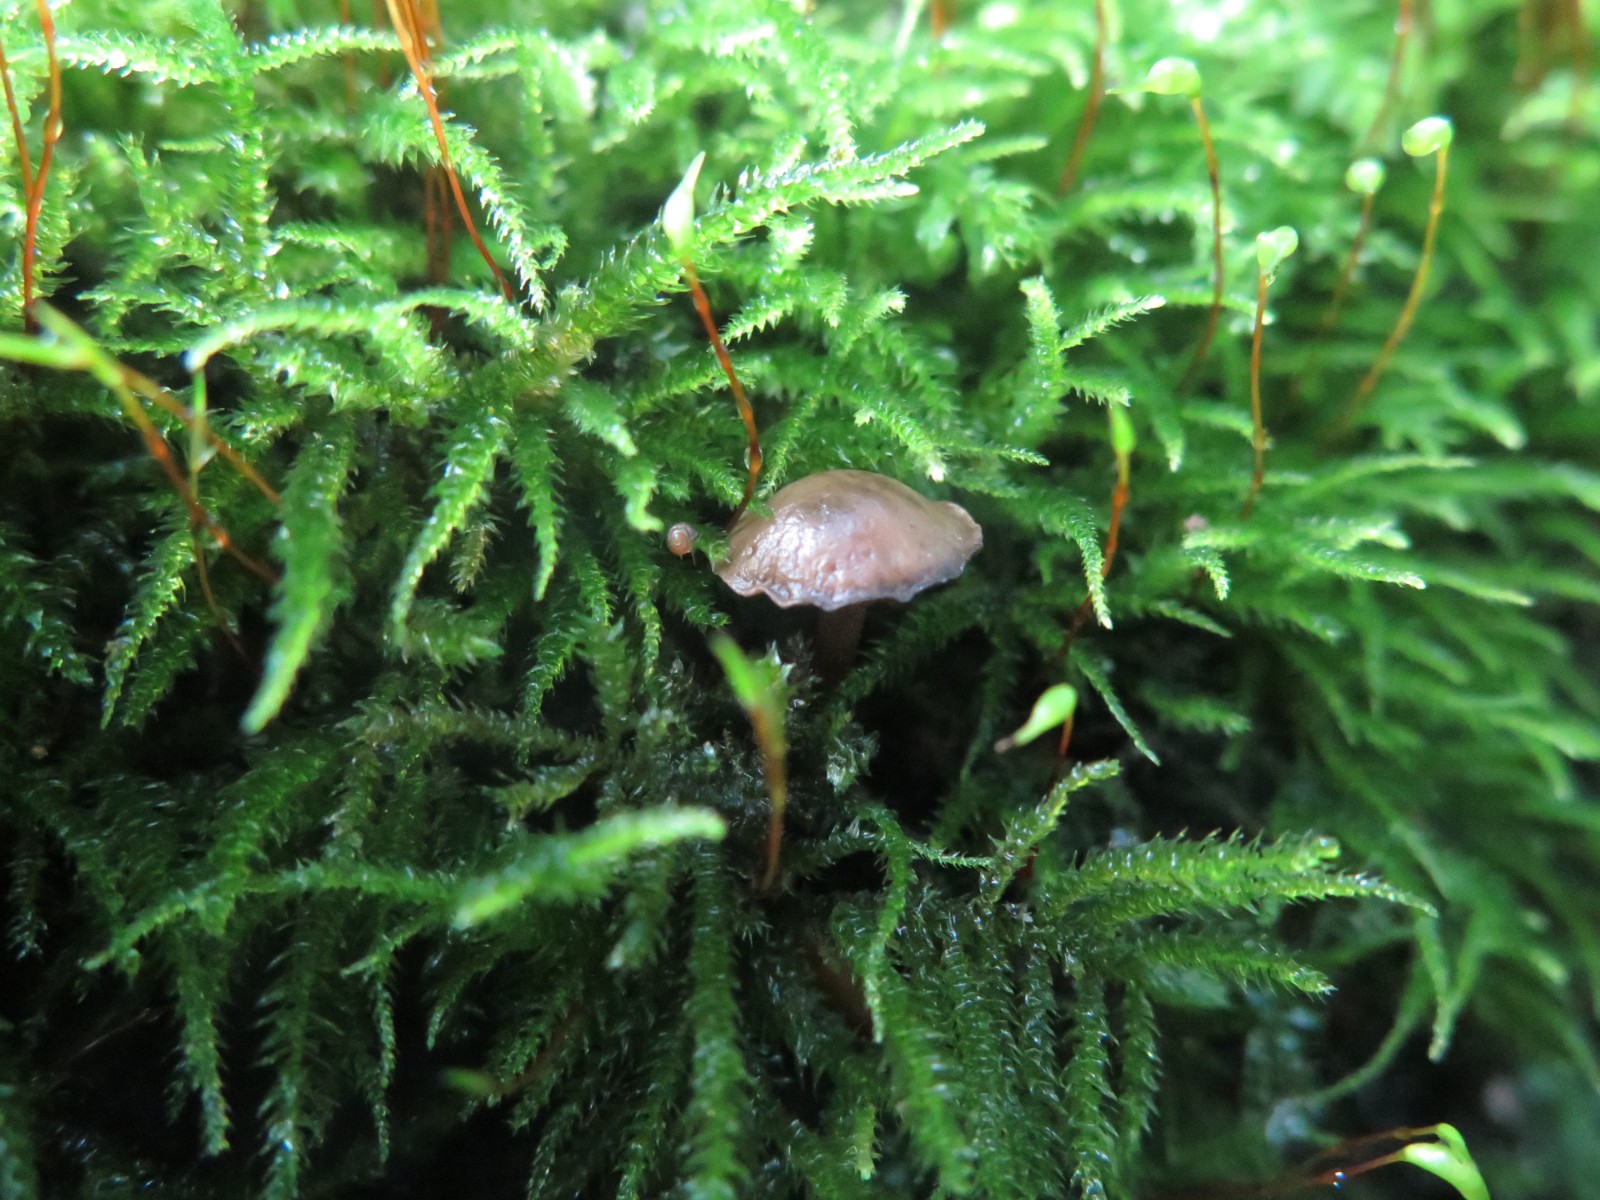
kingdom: Fungi
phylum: Basidiomycota
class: Agaricomycetes
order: Agaricales
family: Clavariaceae
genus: Hodophilus
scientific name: Hodophilus tenuicystidiatus
